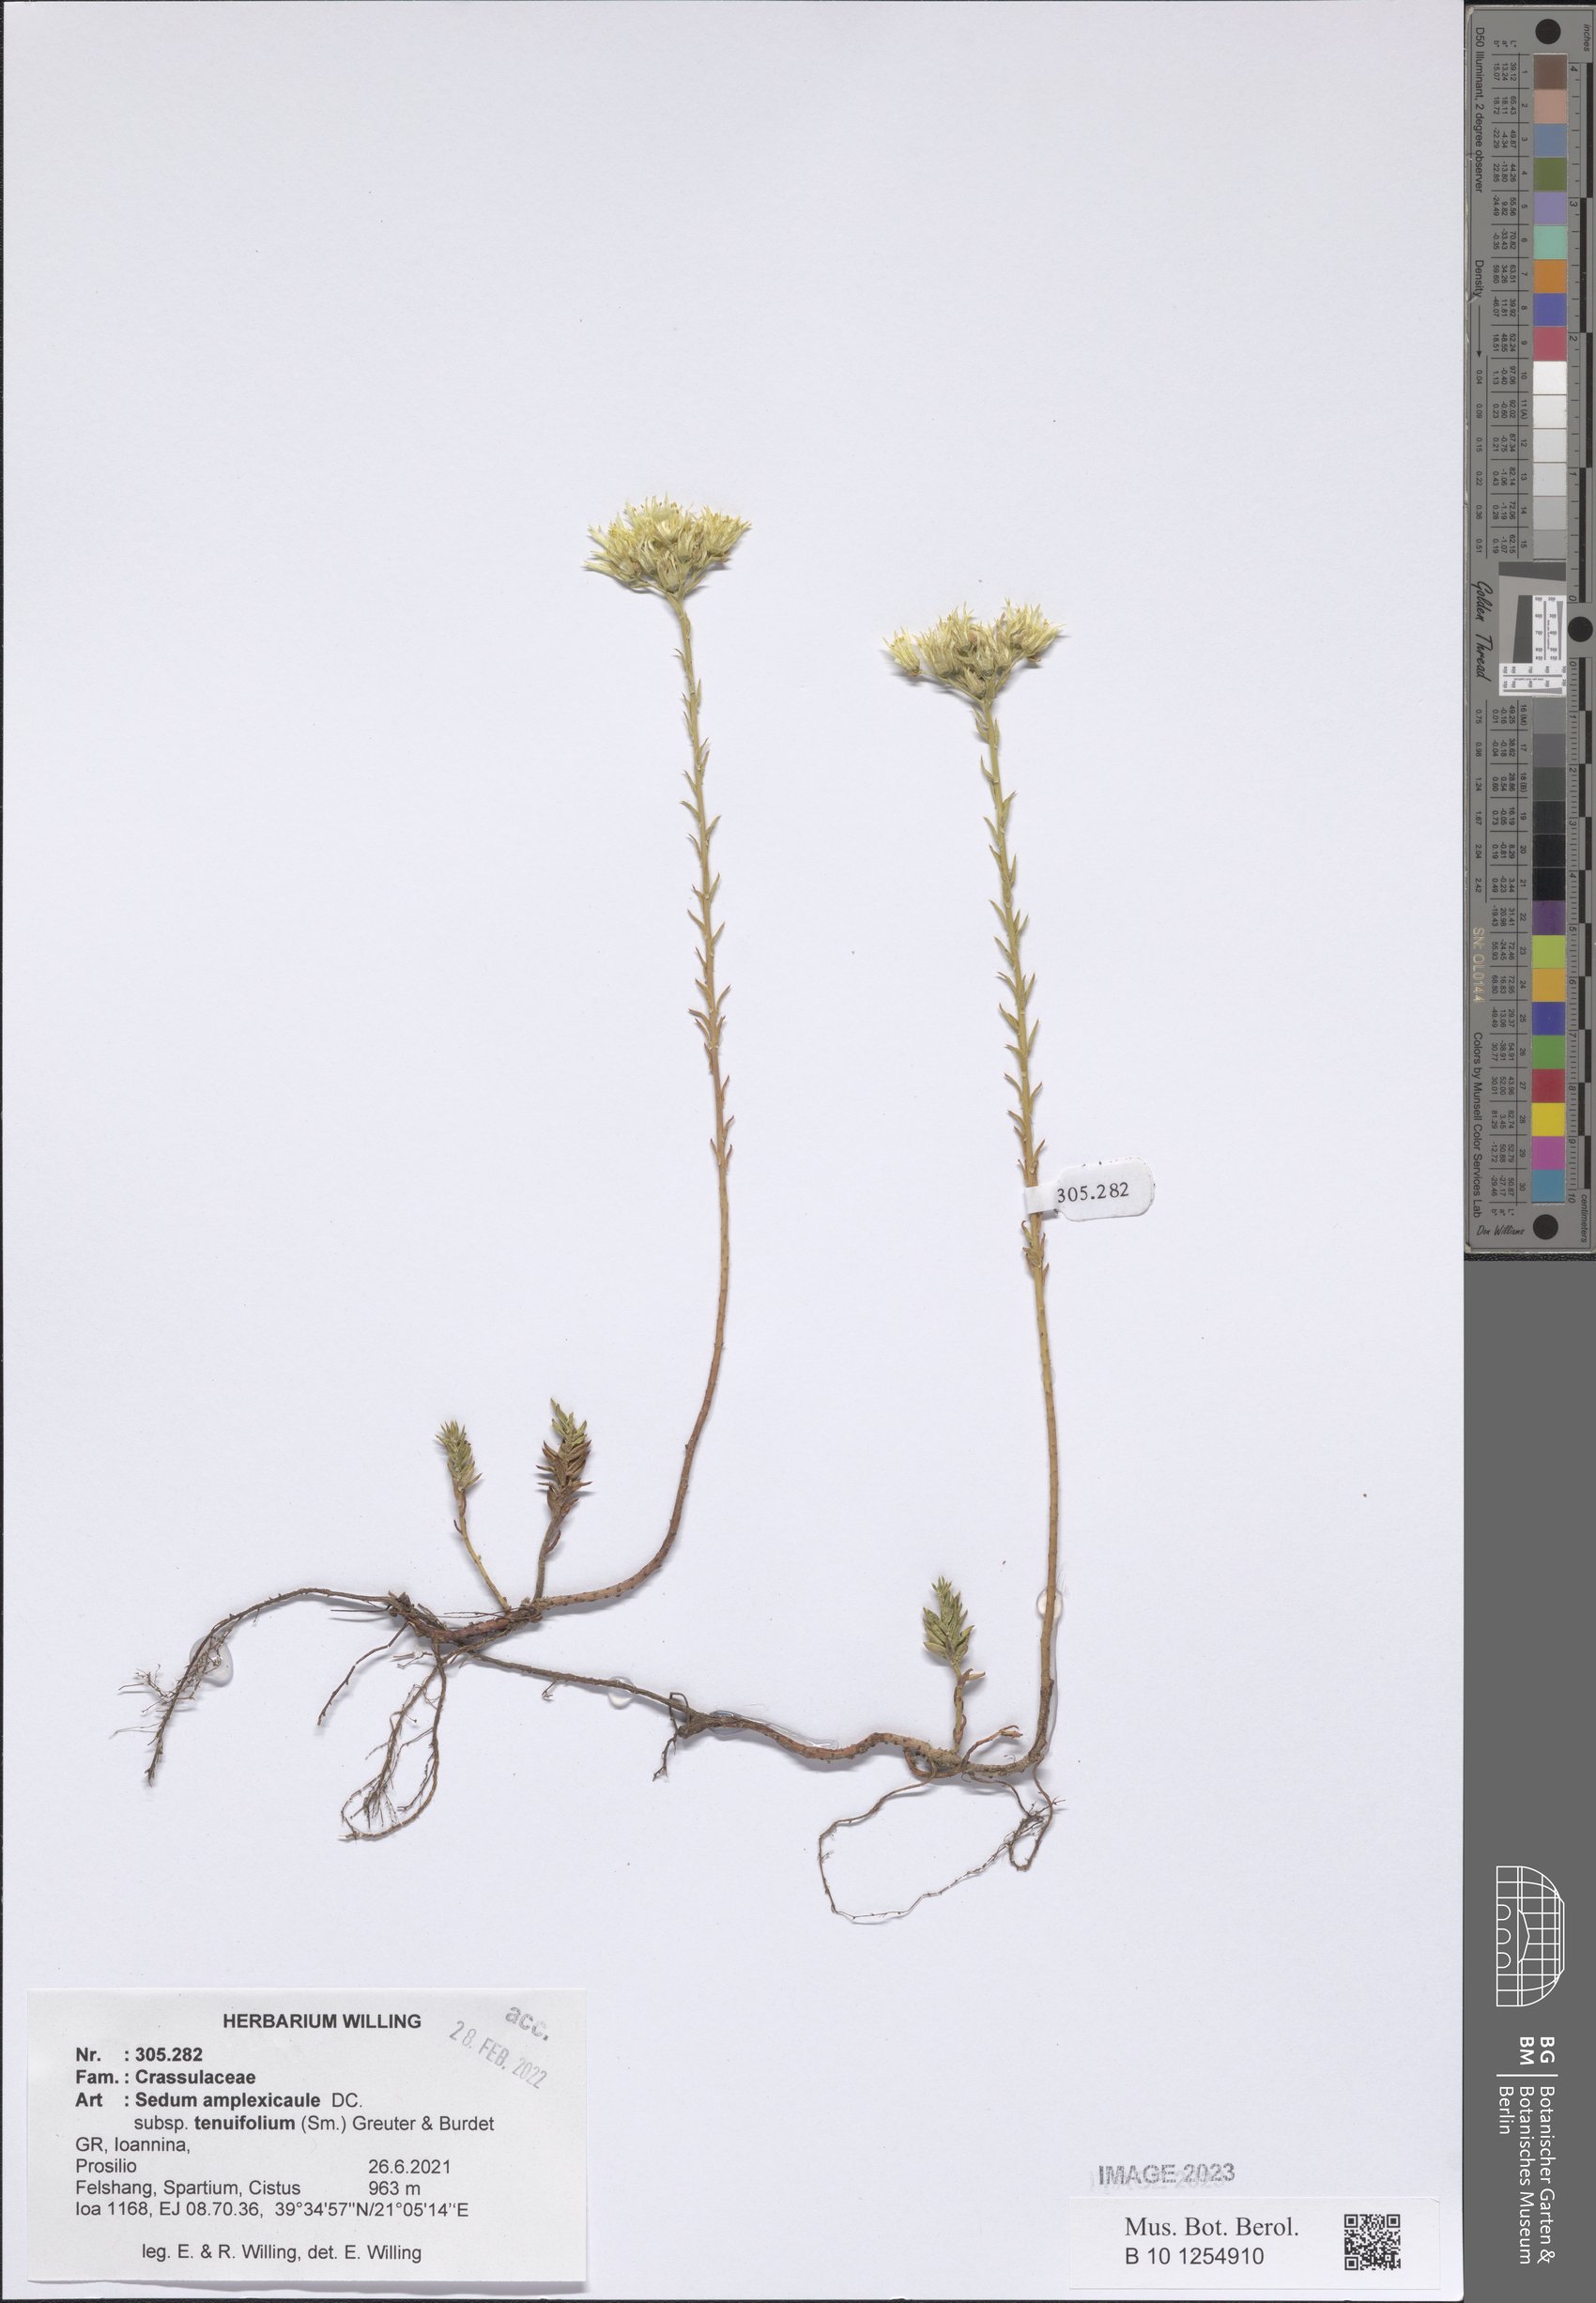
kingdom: Plantae
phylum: Tracheophyta
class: Magnoliopsida
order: Saxifragales
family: Crassulaceae
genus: Petrosedum
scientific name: Petrosedum tenuifolium
